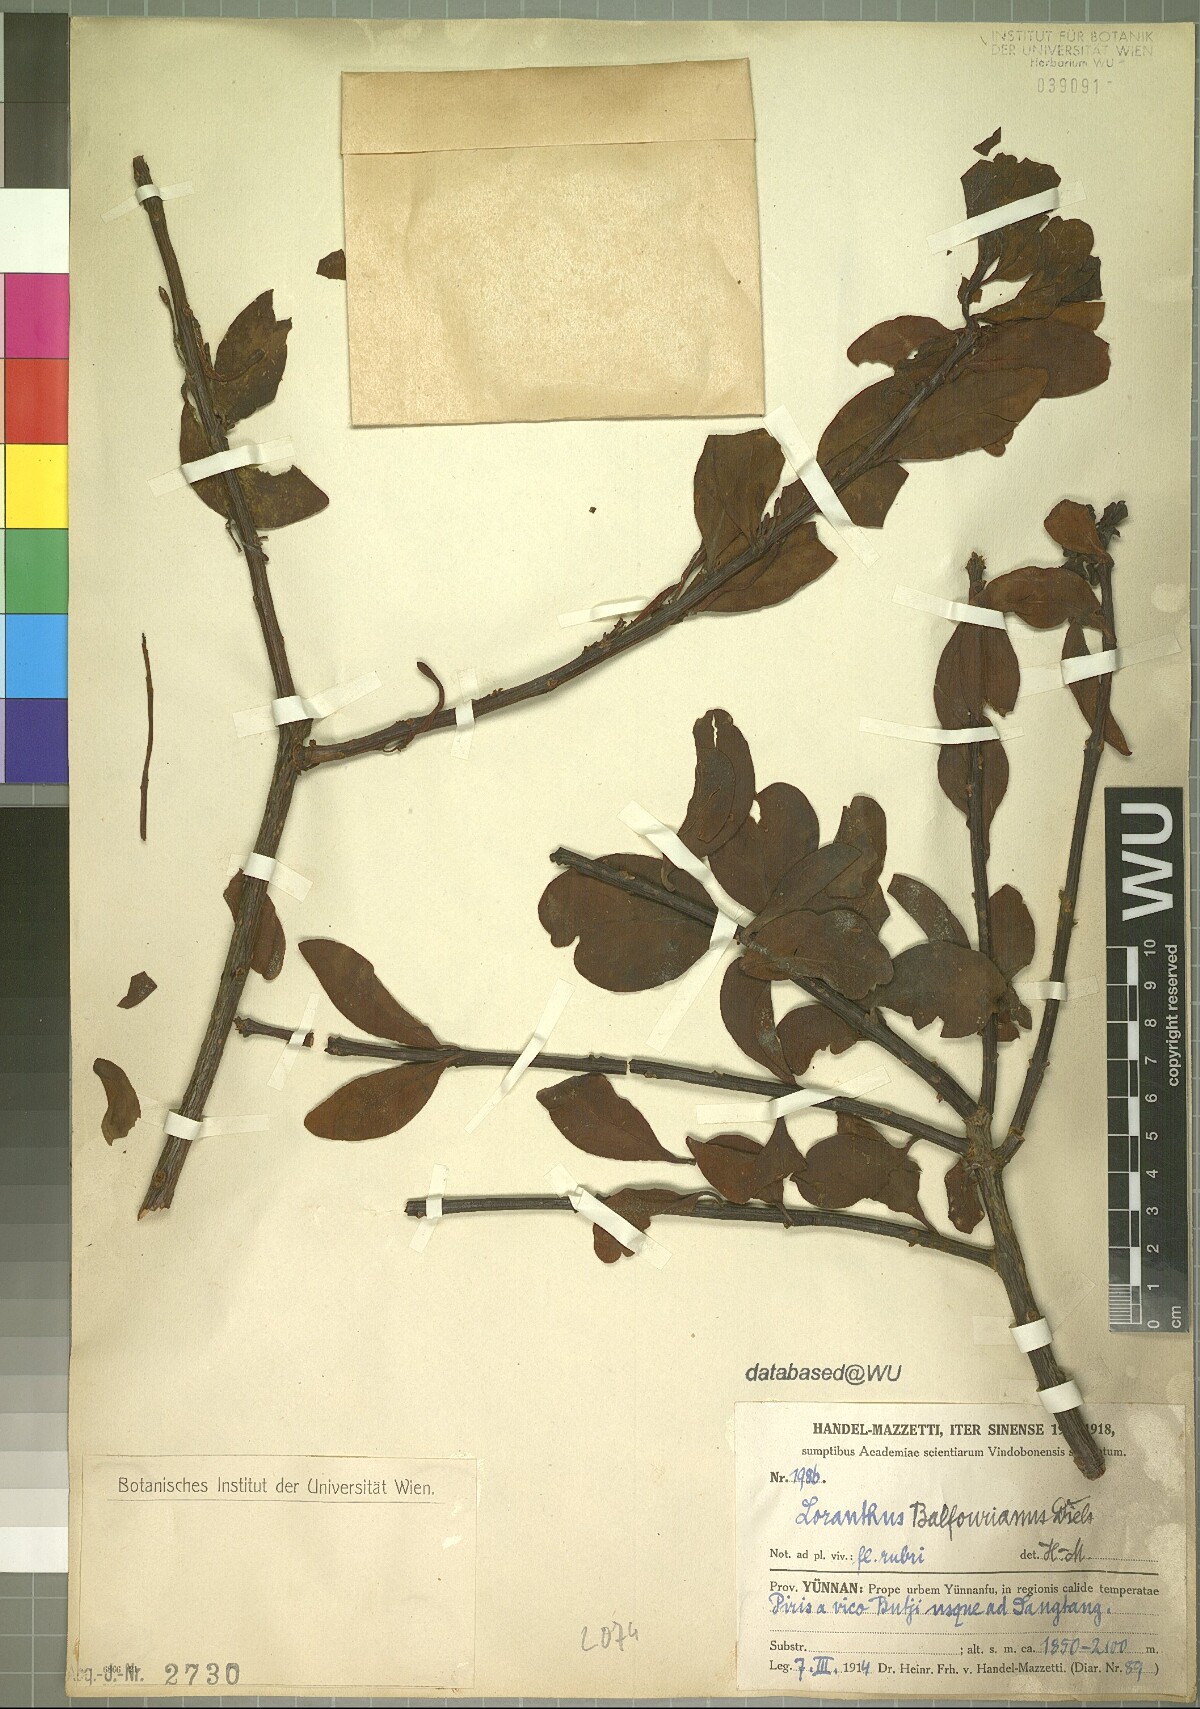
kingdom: Plantae
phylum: Tracheophyta
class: Magnoliopsida
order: Santalales
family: Loranthaceae
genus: Taxillus
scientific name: Taxillus delavayi
